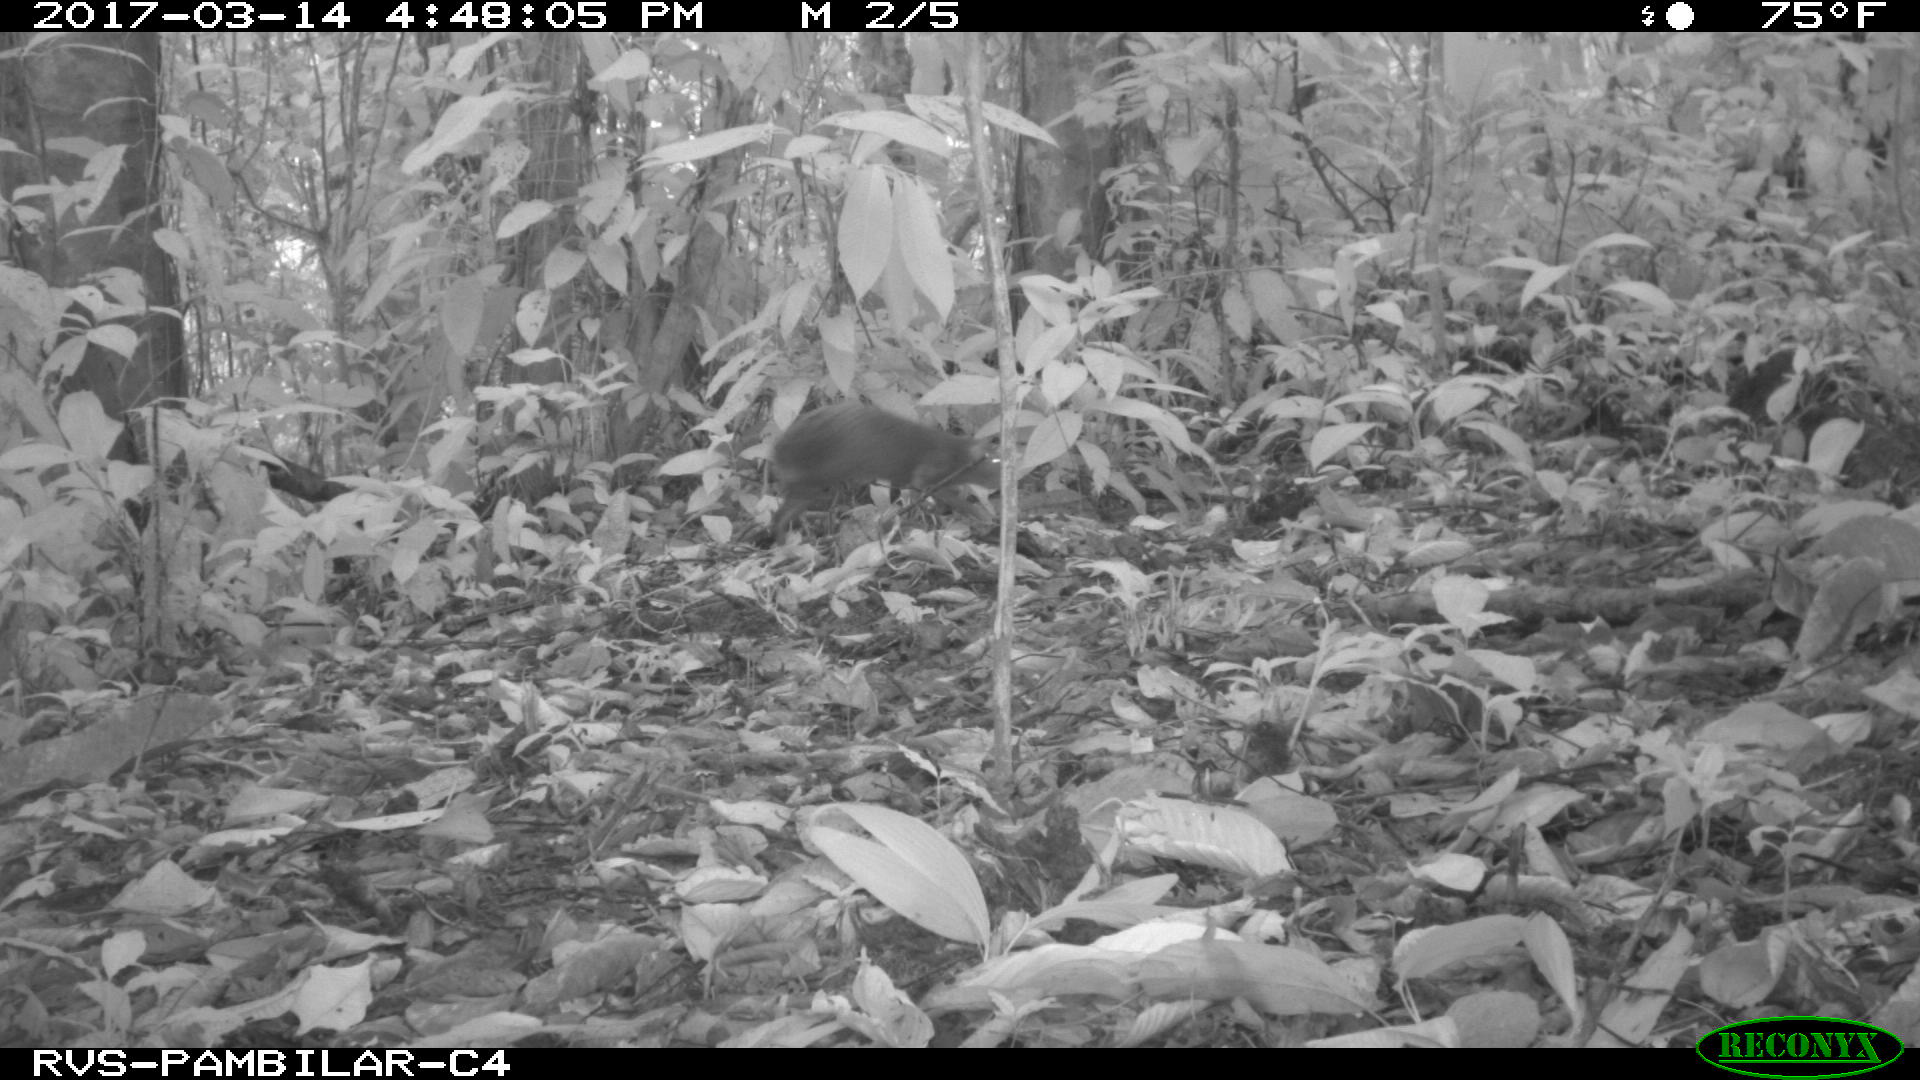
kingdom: Animalia
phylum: Chordata
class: Mammalia
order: Artiodactyla
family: Tayassuidae
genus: Tayassu
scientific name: Tayassu pecari
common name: White-lipped peccary
